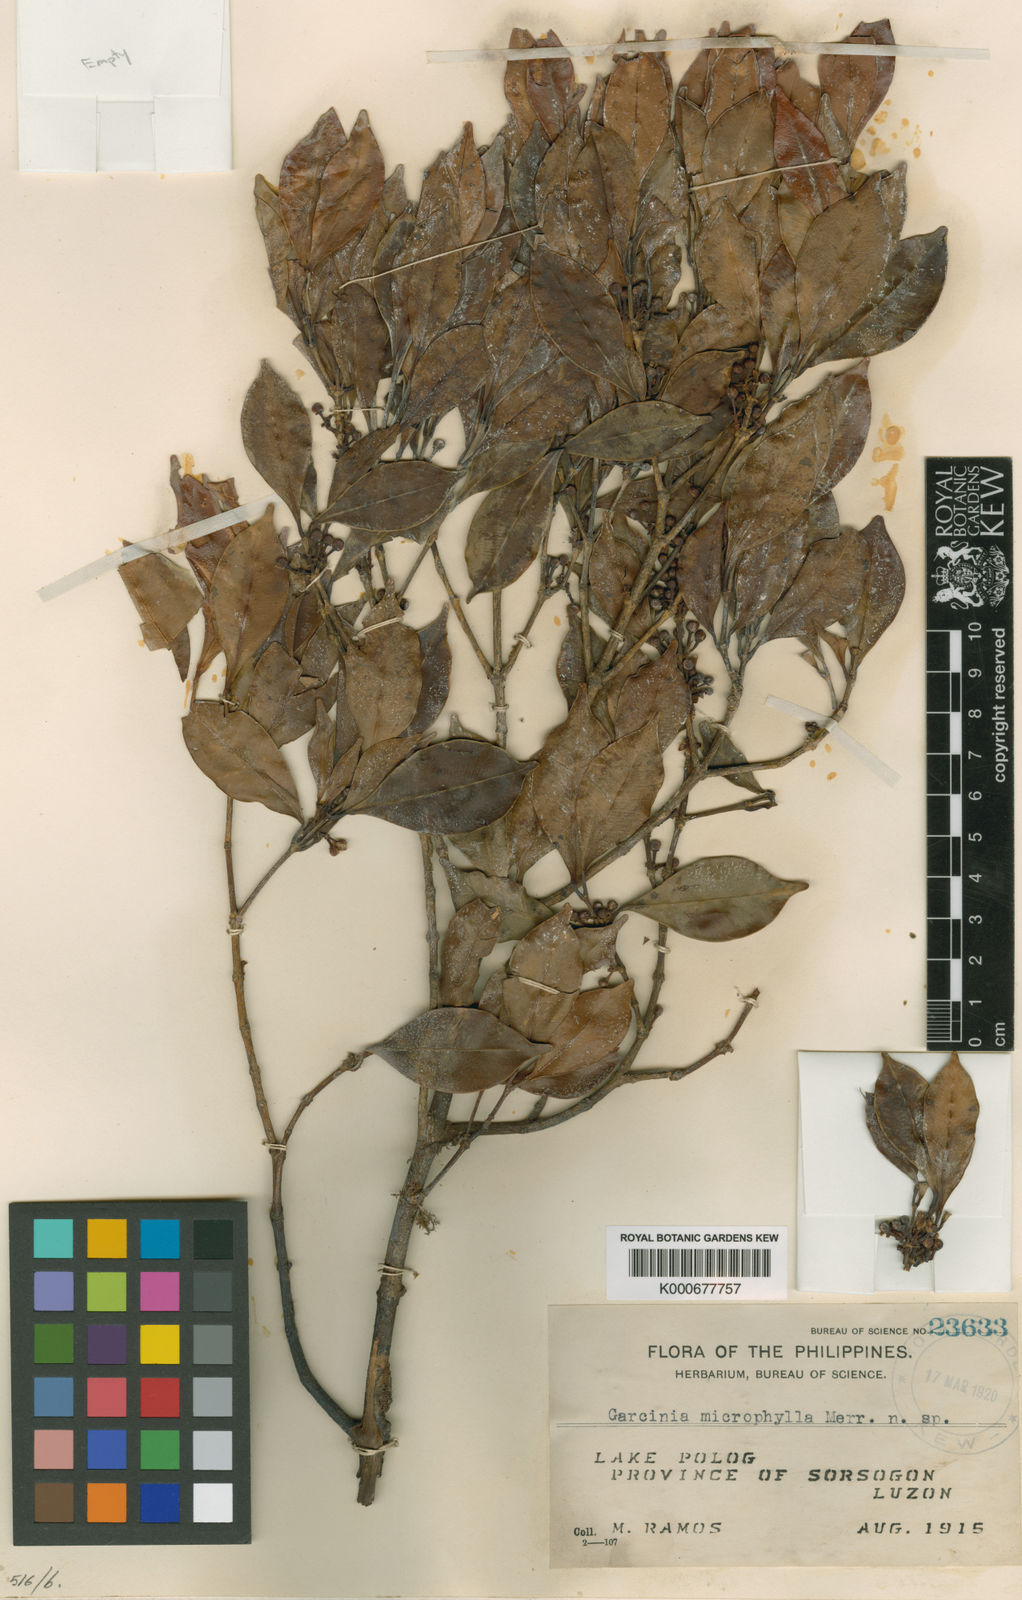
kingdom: Plantae
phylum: Tracheophyta
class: Magnoliopsida
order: Malpighiales
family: Clusiaceae
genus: Garcinia
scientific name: Garcinia brevirostris
